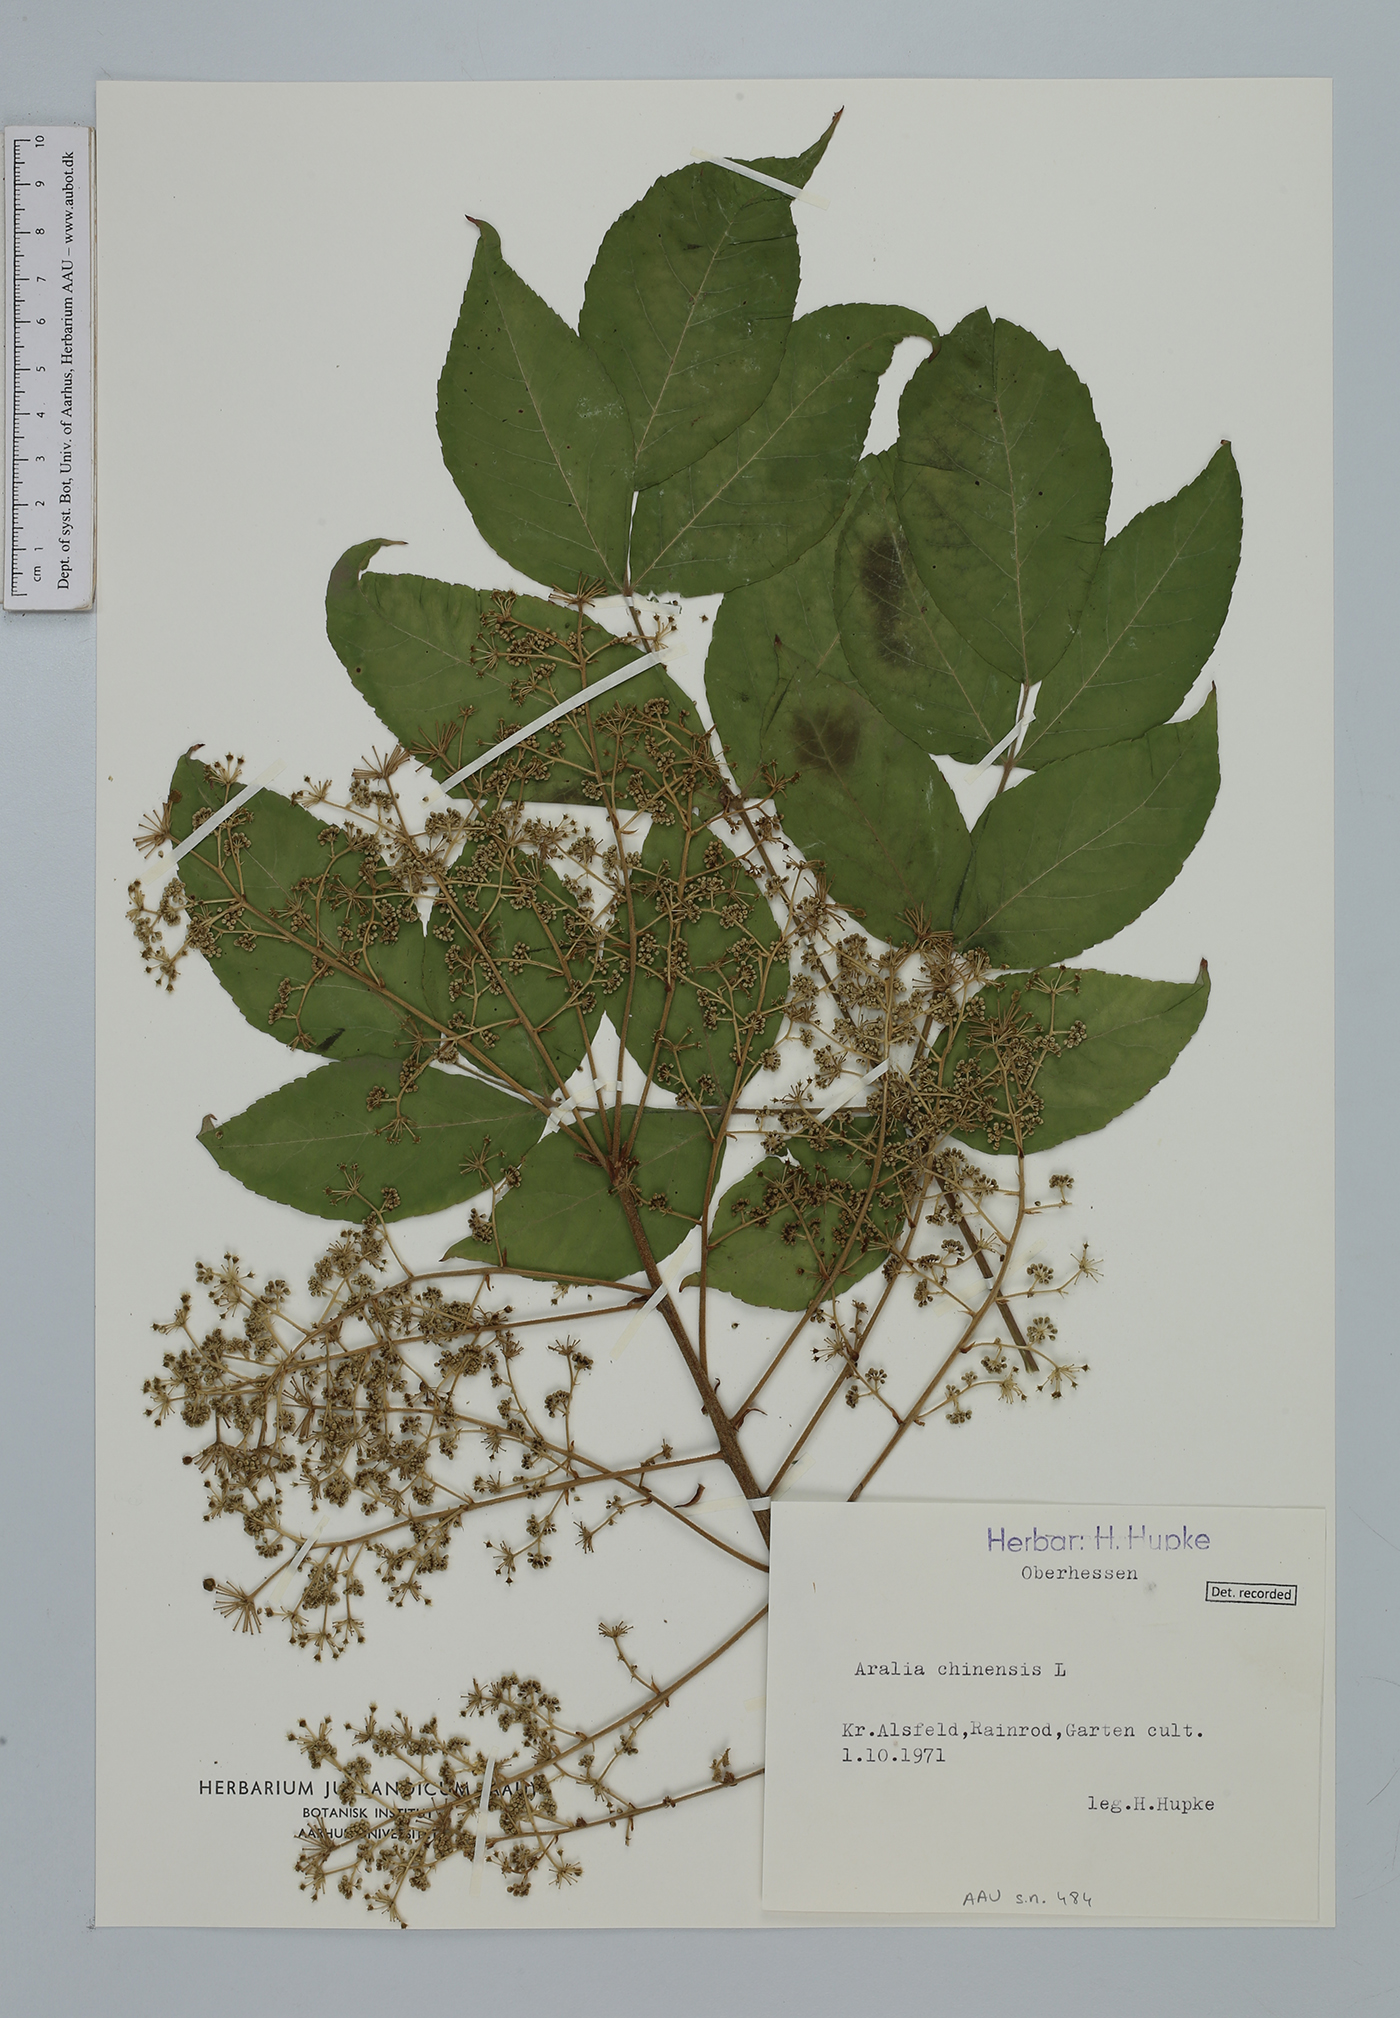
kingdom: Plantae
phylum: Tracheophyta
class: Magnoliopsida
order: Apiales
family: Araliaceae
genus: Aralia
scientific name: Aralia chinensis
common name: Chinese angelica-tree
